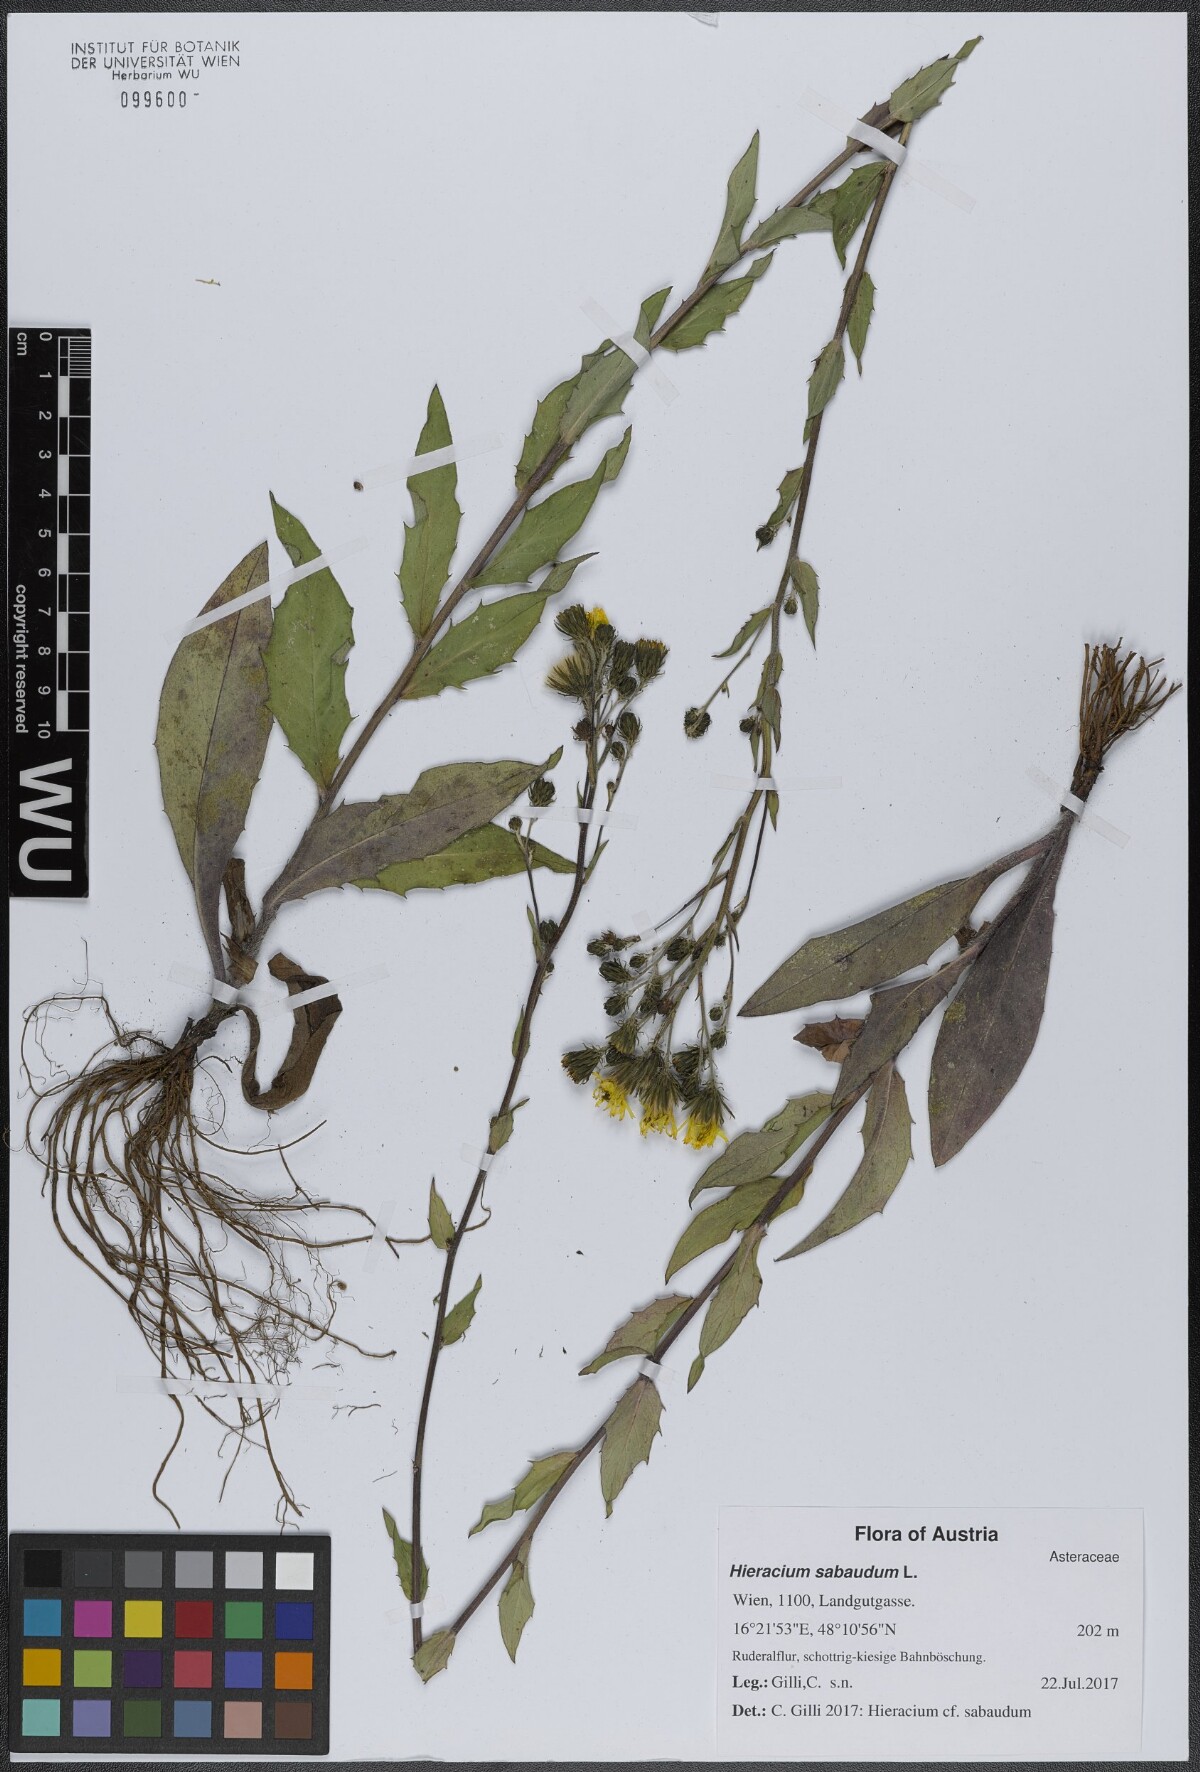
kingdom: Plantae
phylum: Tracheophyta
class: Magnoliopsida
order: Asterales
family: Asteraceae
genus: Hieracium
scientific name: Hieracium sabaudum
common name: New england hawkweed
